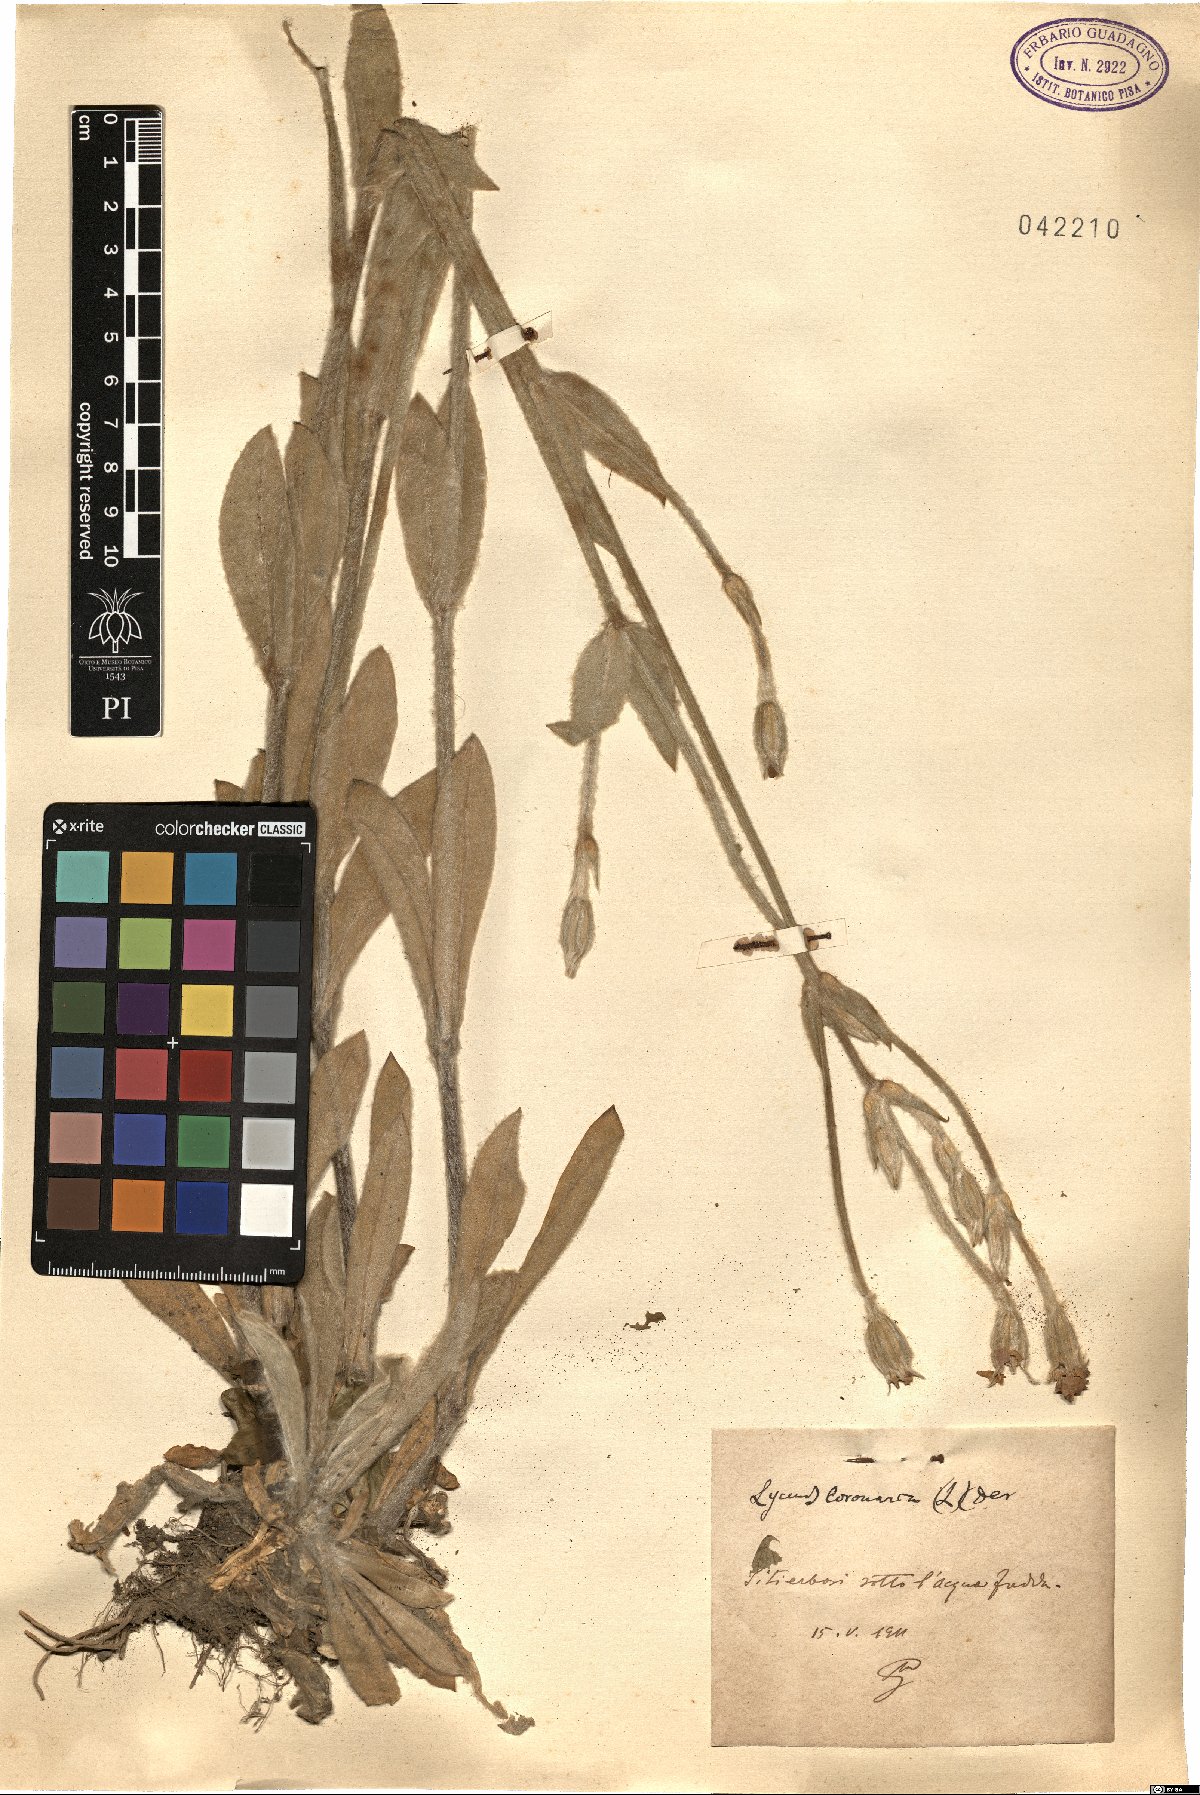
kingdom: Plantae
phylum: Tracheophyta
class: Magnoliopsida
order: Caryophyllales
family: Caryophyllaceae
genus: Silene
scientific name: Silene coronaria
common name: Rose campion
